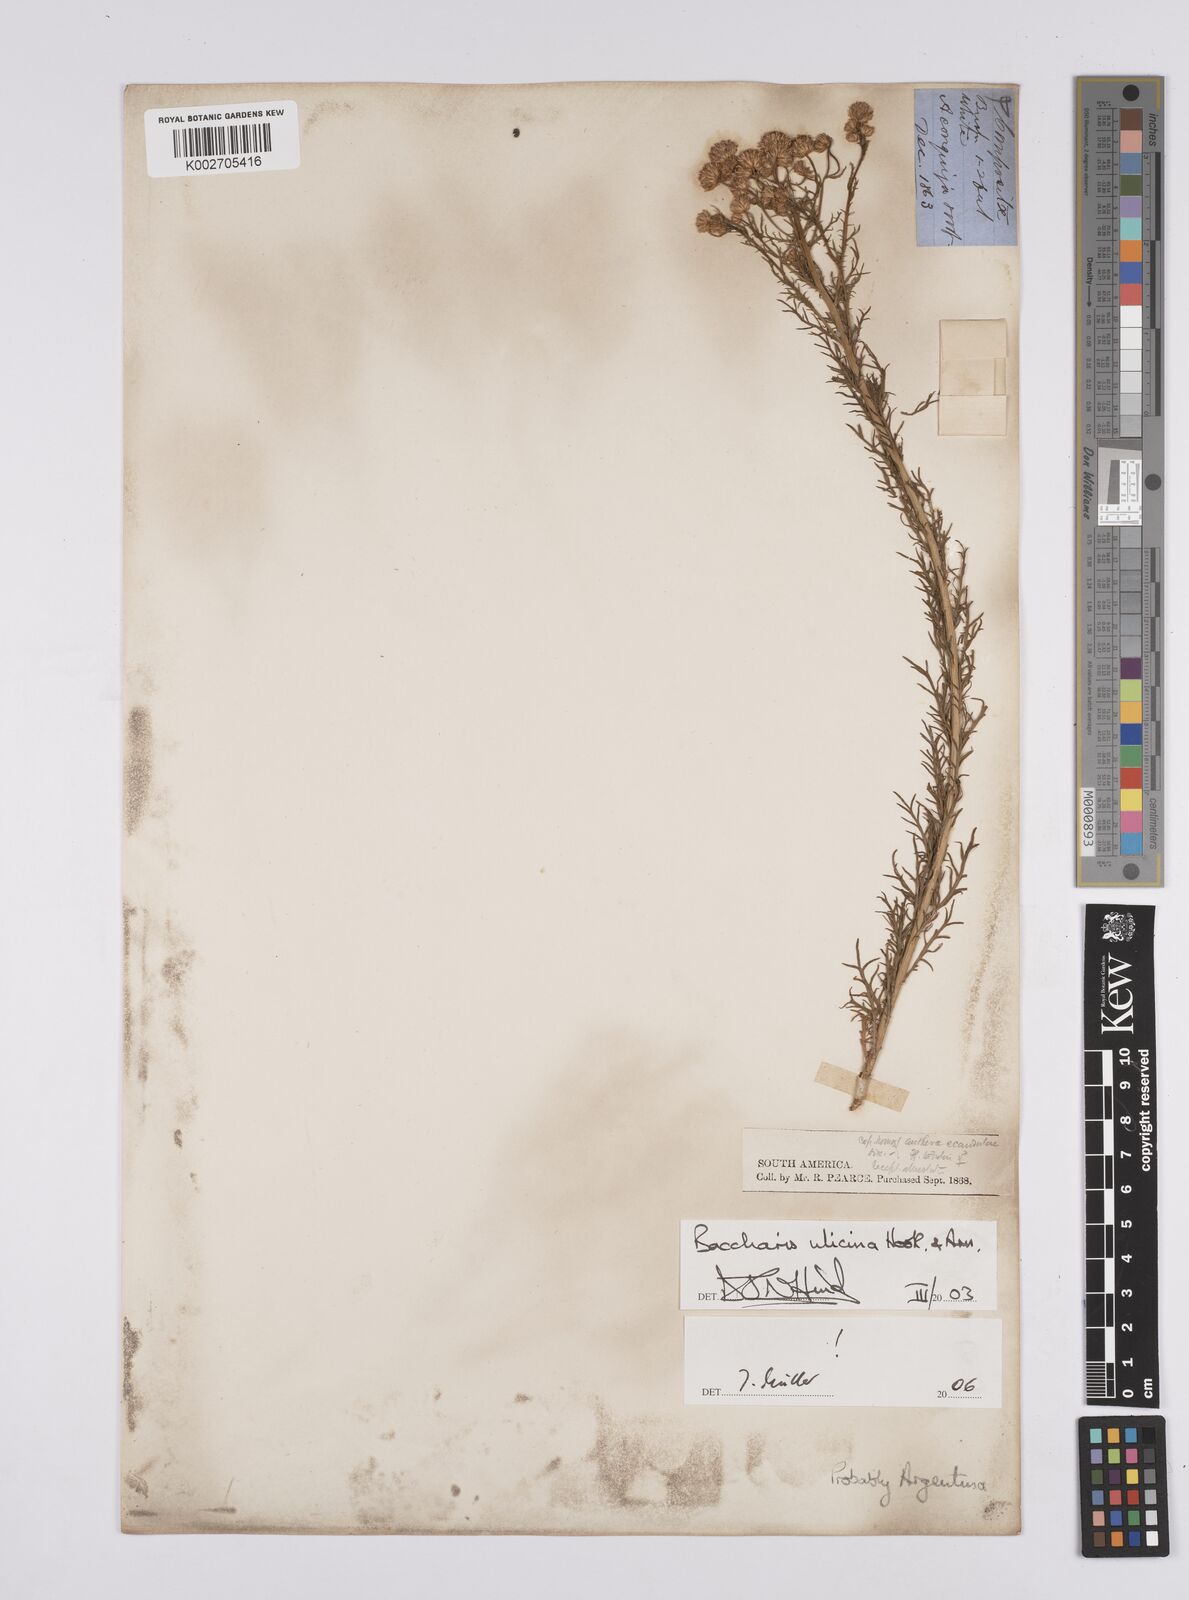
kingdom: Plantae
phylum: Tracheophyta
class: Magnoliopsida
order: Asterales
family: Asteraceae
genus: Baccharis
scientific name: Baccharis ulicina
